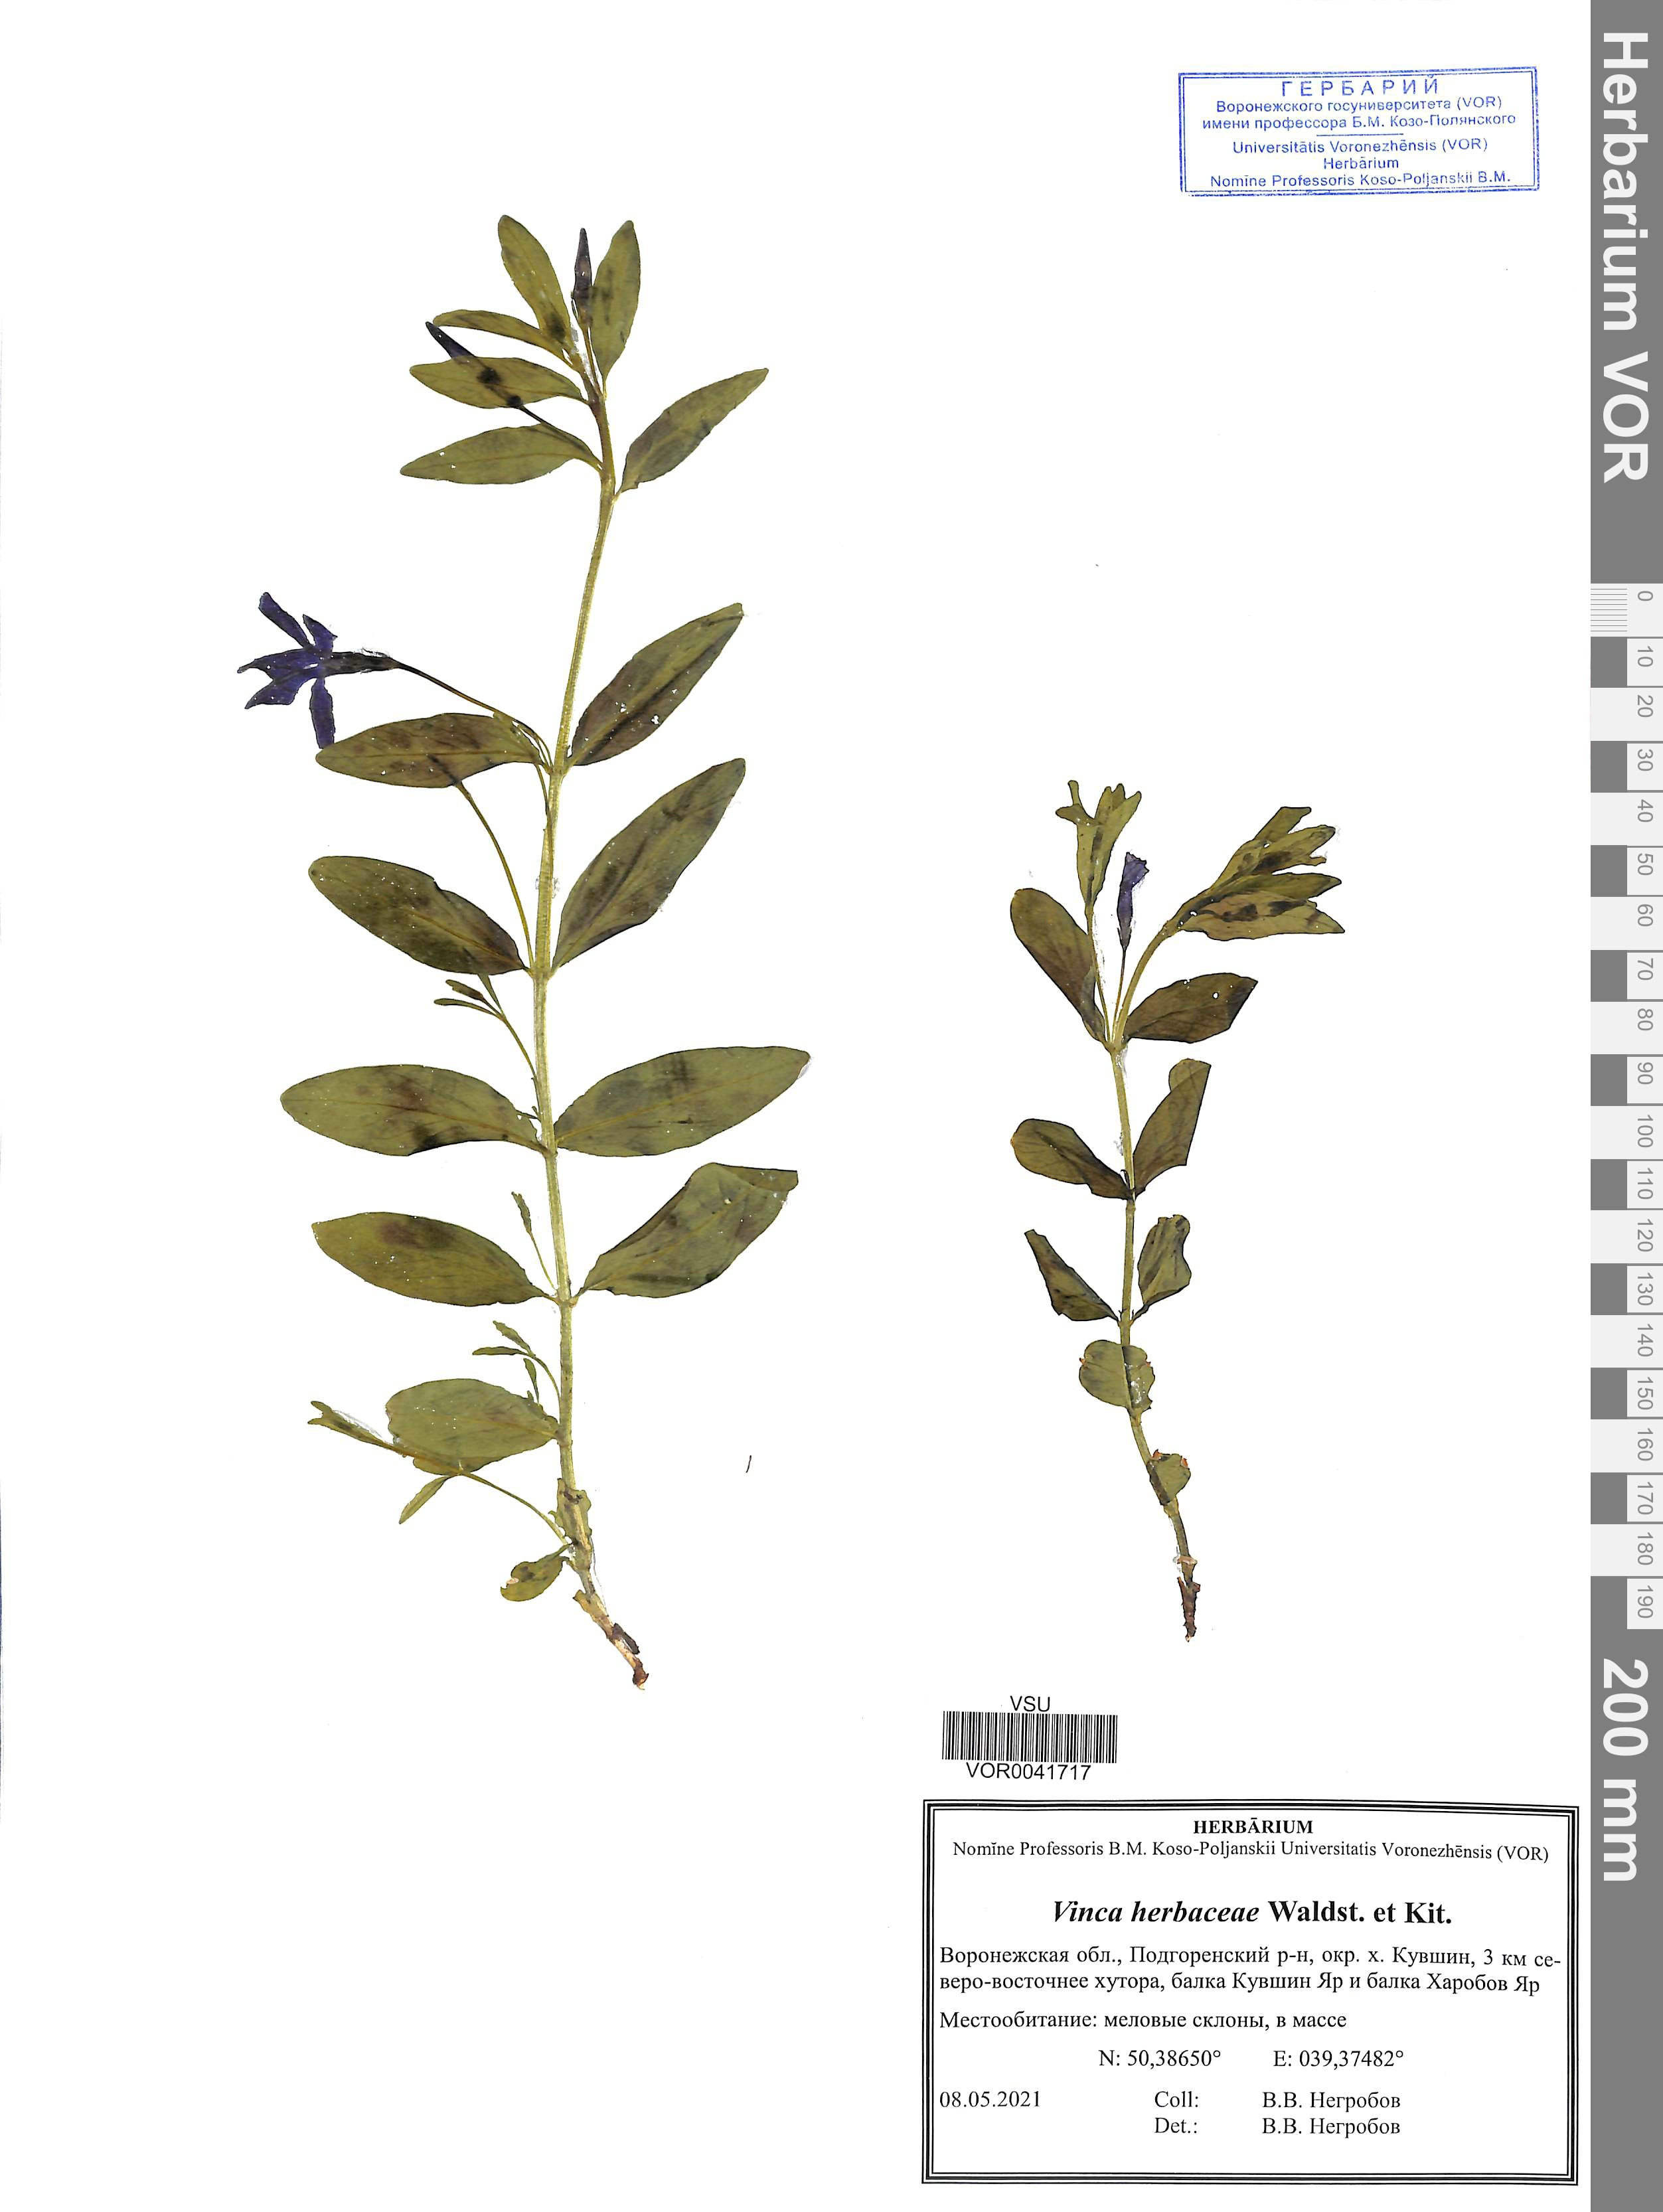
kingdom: Plantae
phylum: Tracheophyta
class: Magnoliopsida
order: Gentianales
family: Apocynaceae
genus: Vinca
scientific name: Vinca herbacea
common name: Herbaceous periwinkle
